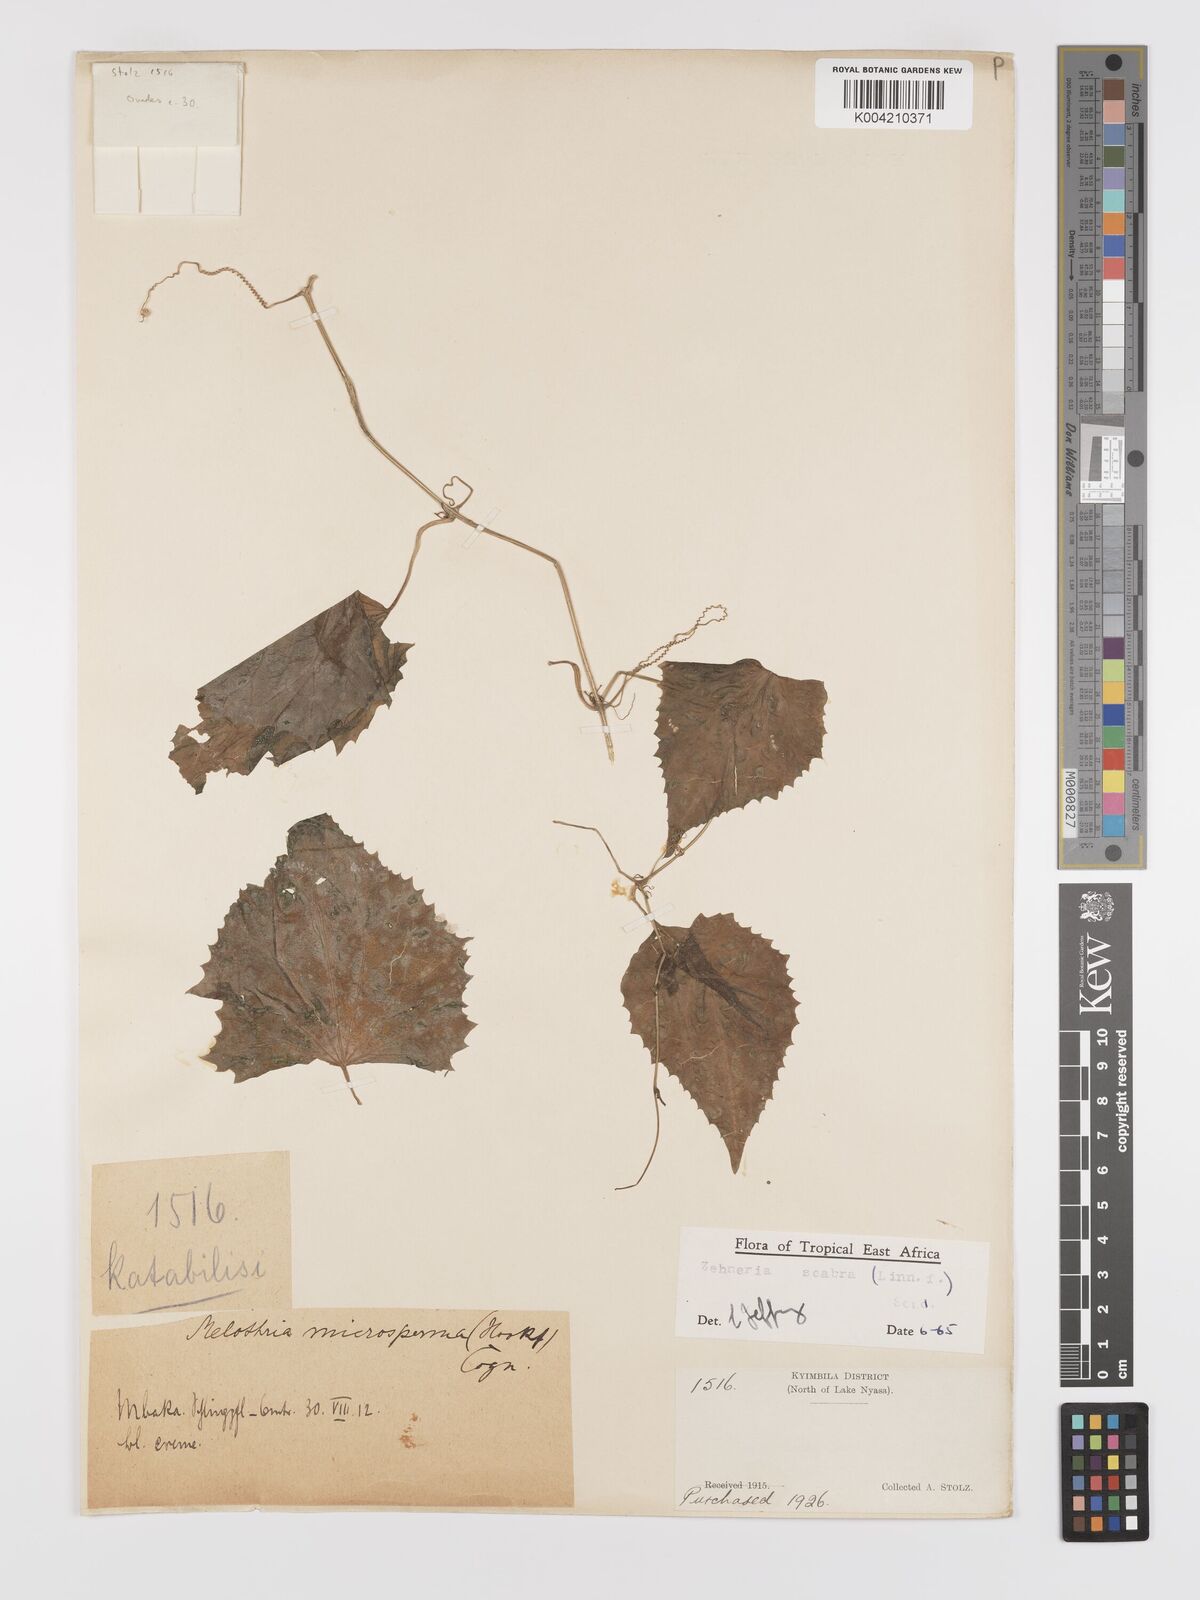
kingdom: Plantae
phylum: Tracheophyta
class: Magnoliopsida
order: Cucurbitales
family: Cucurbitaceae
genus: Zehneria
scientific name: Zehneria emirnensis
